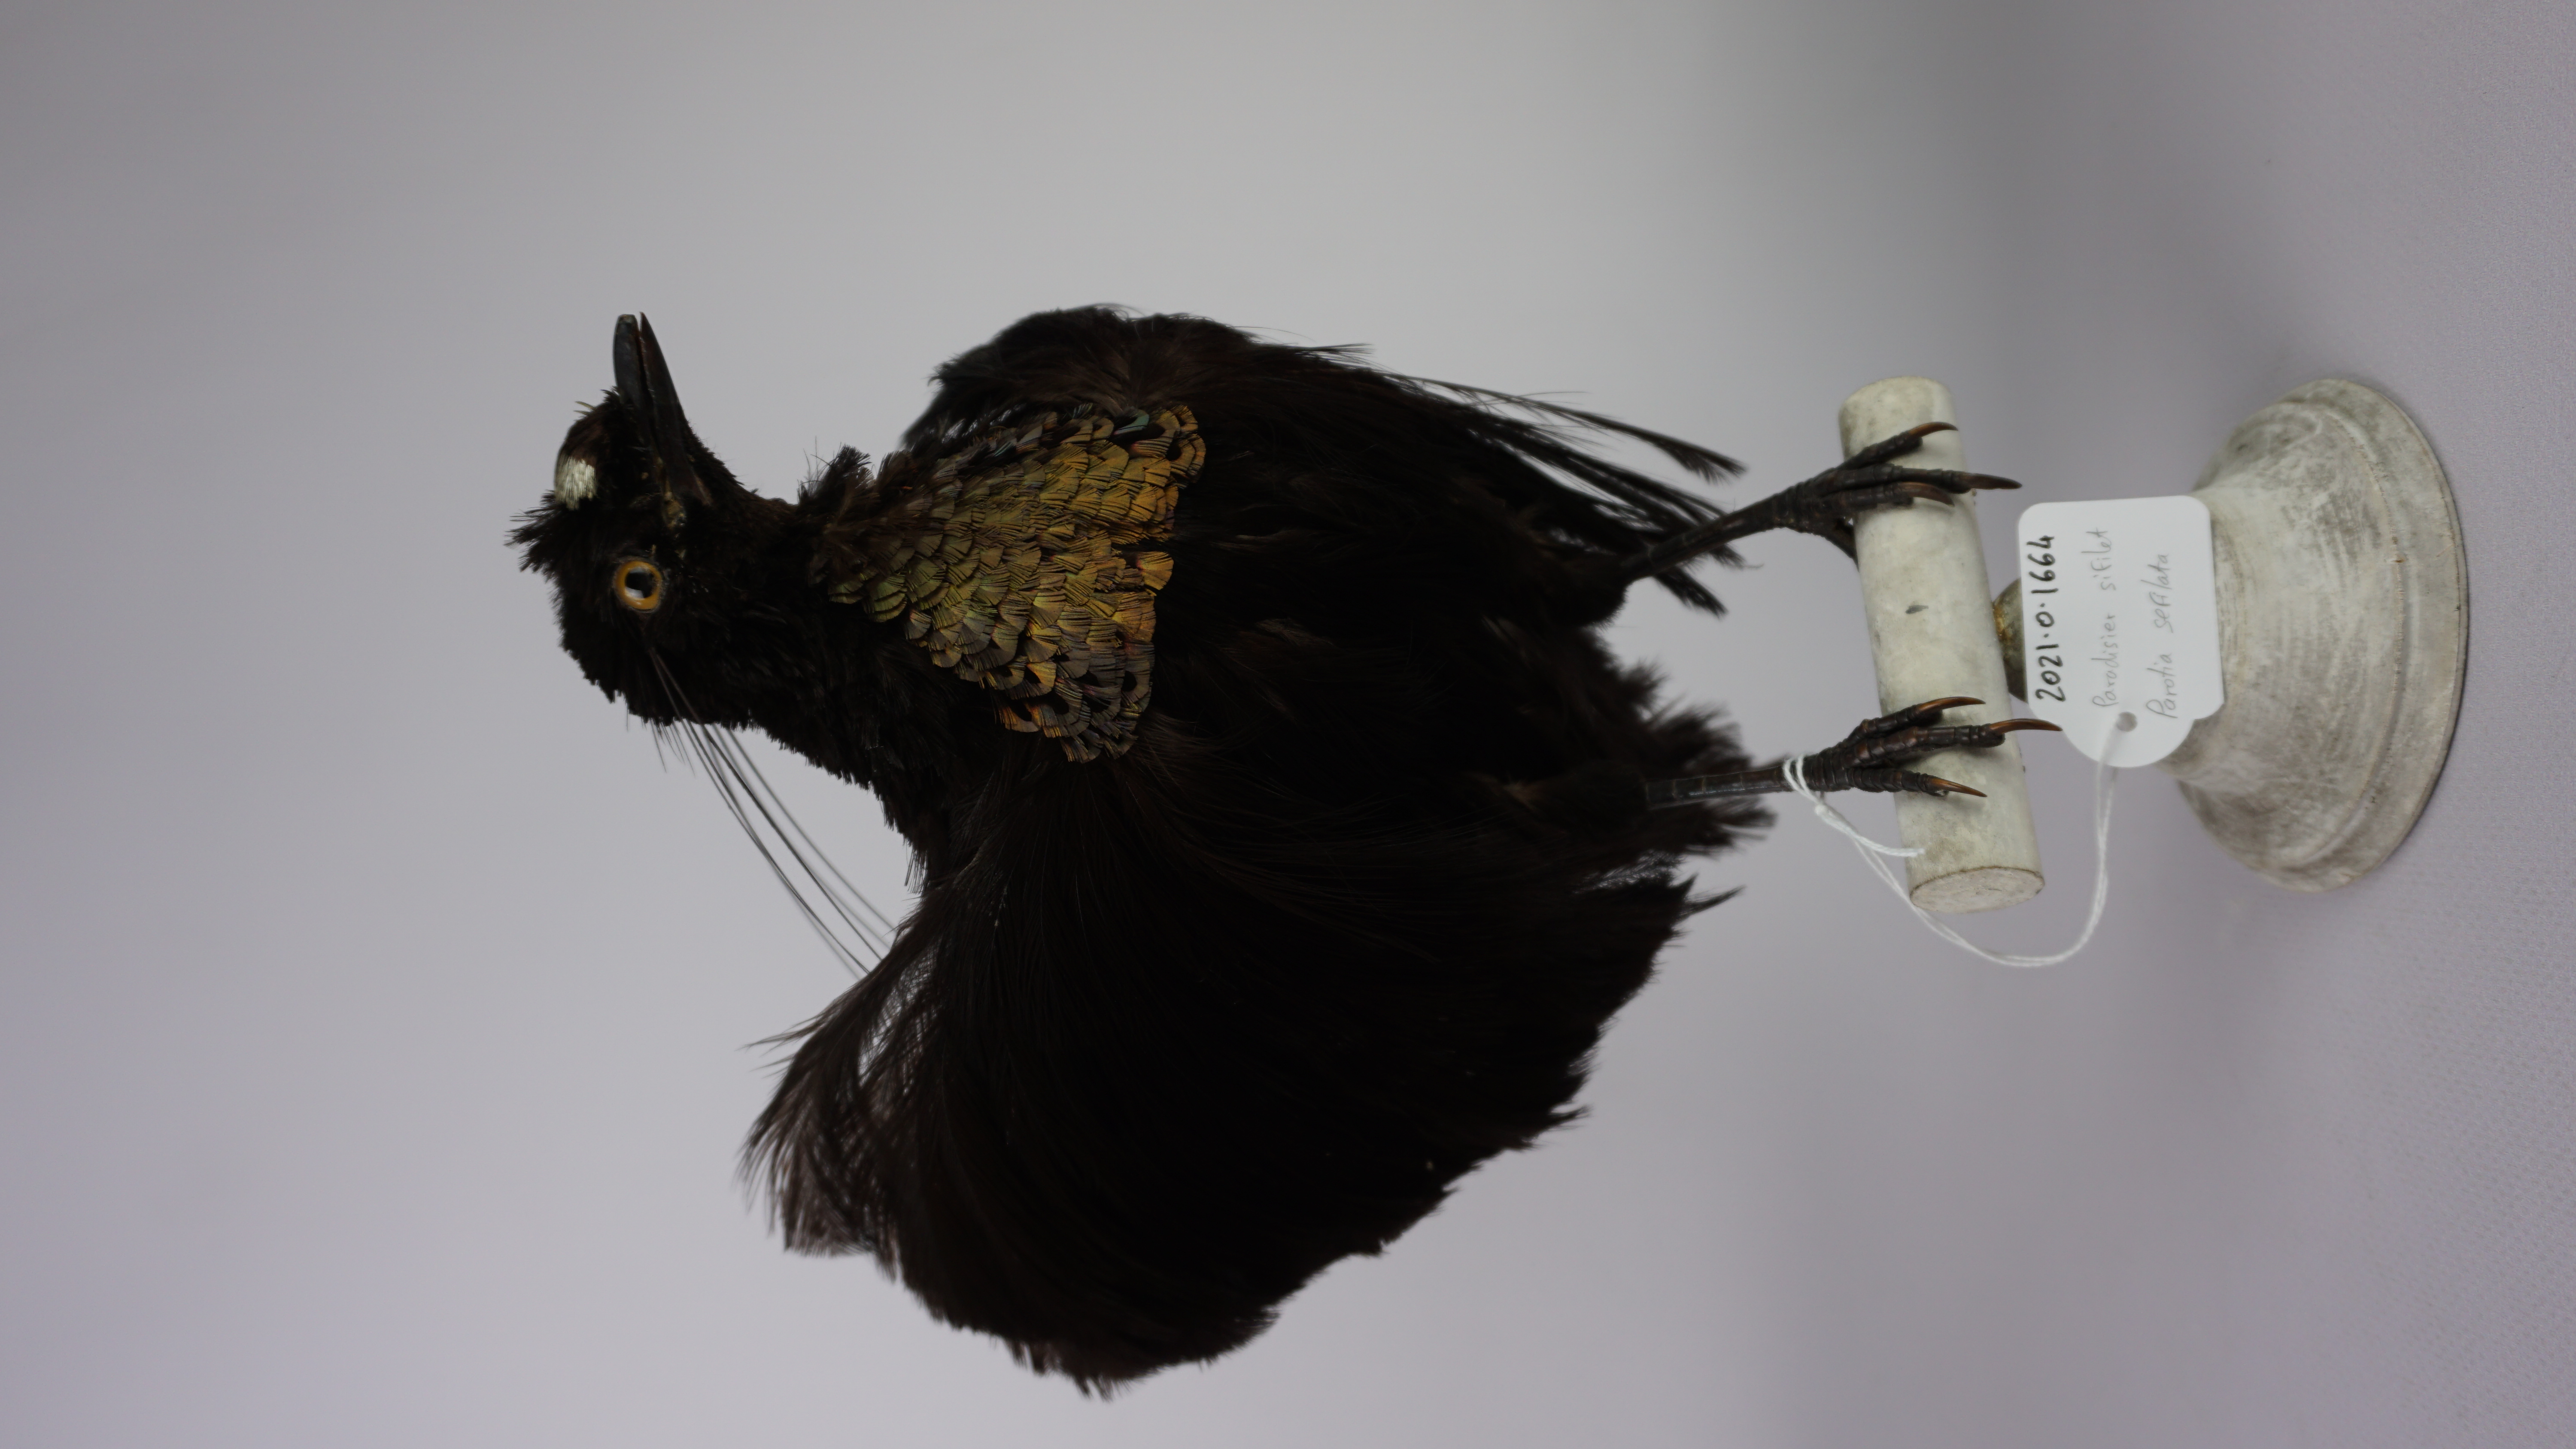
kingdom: Animalia
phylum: Chordata
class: Aves
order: Passeriformes
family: Paradisaeidae
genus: Parotia
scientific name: Parotia sefilata
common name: Western parotia
